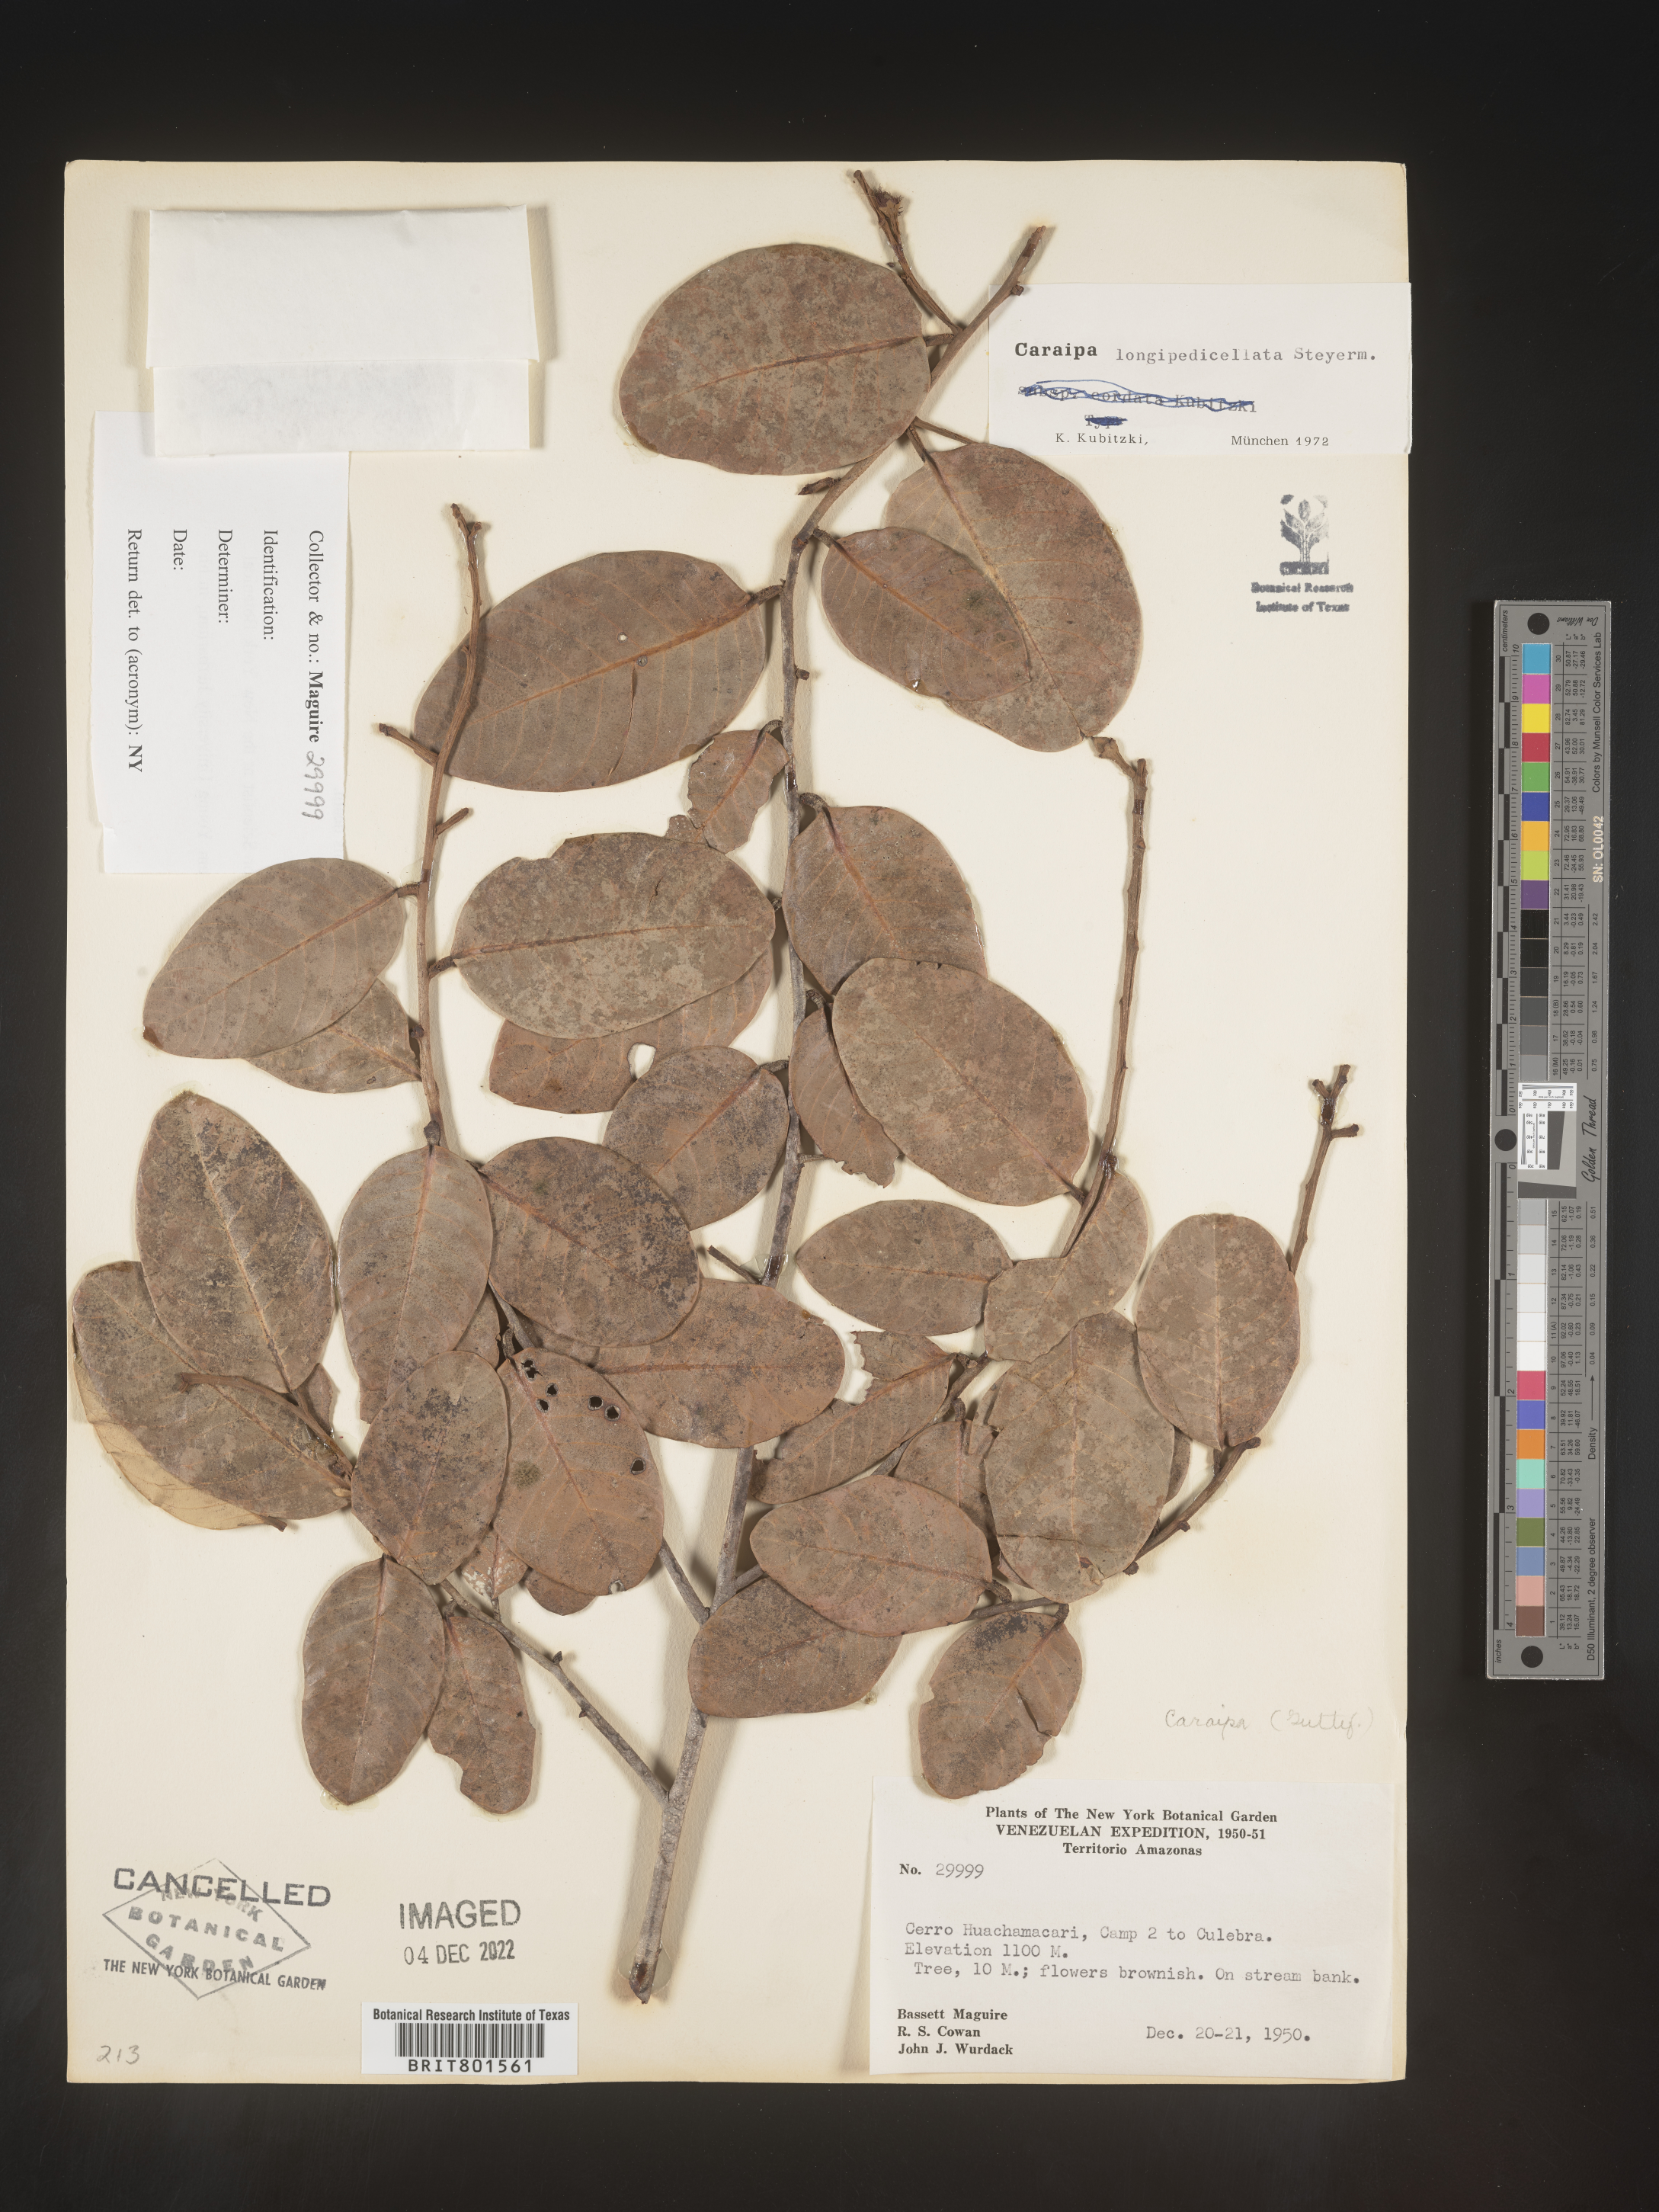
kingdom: Plantae
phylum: Tracheophyta
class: Magnoliopsida
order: Malpighiales
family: Calophyllaceae
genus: Caraipa
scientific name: Caraipa
